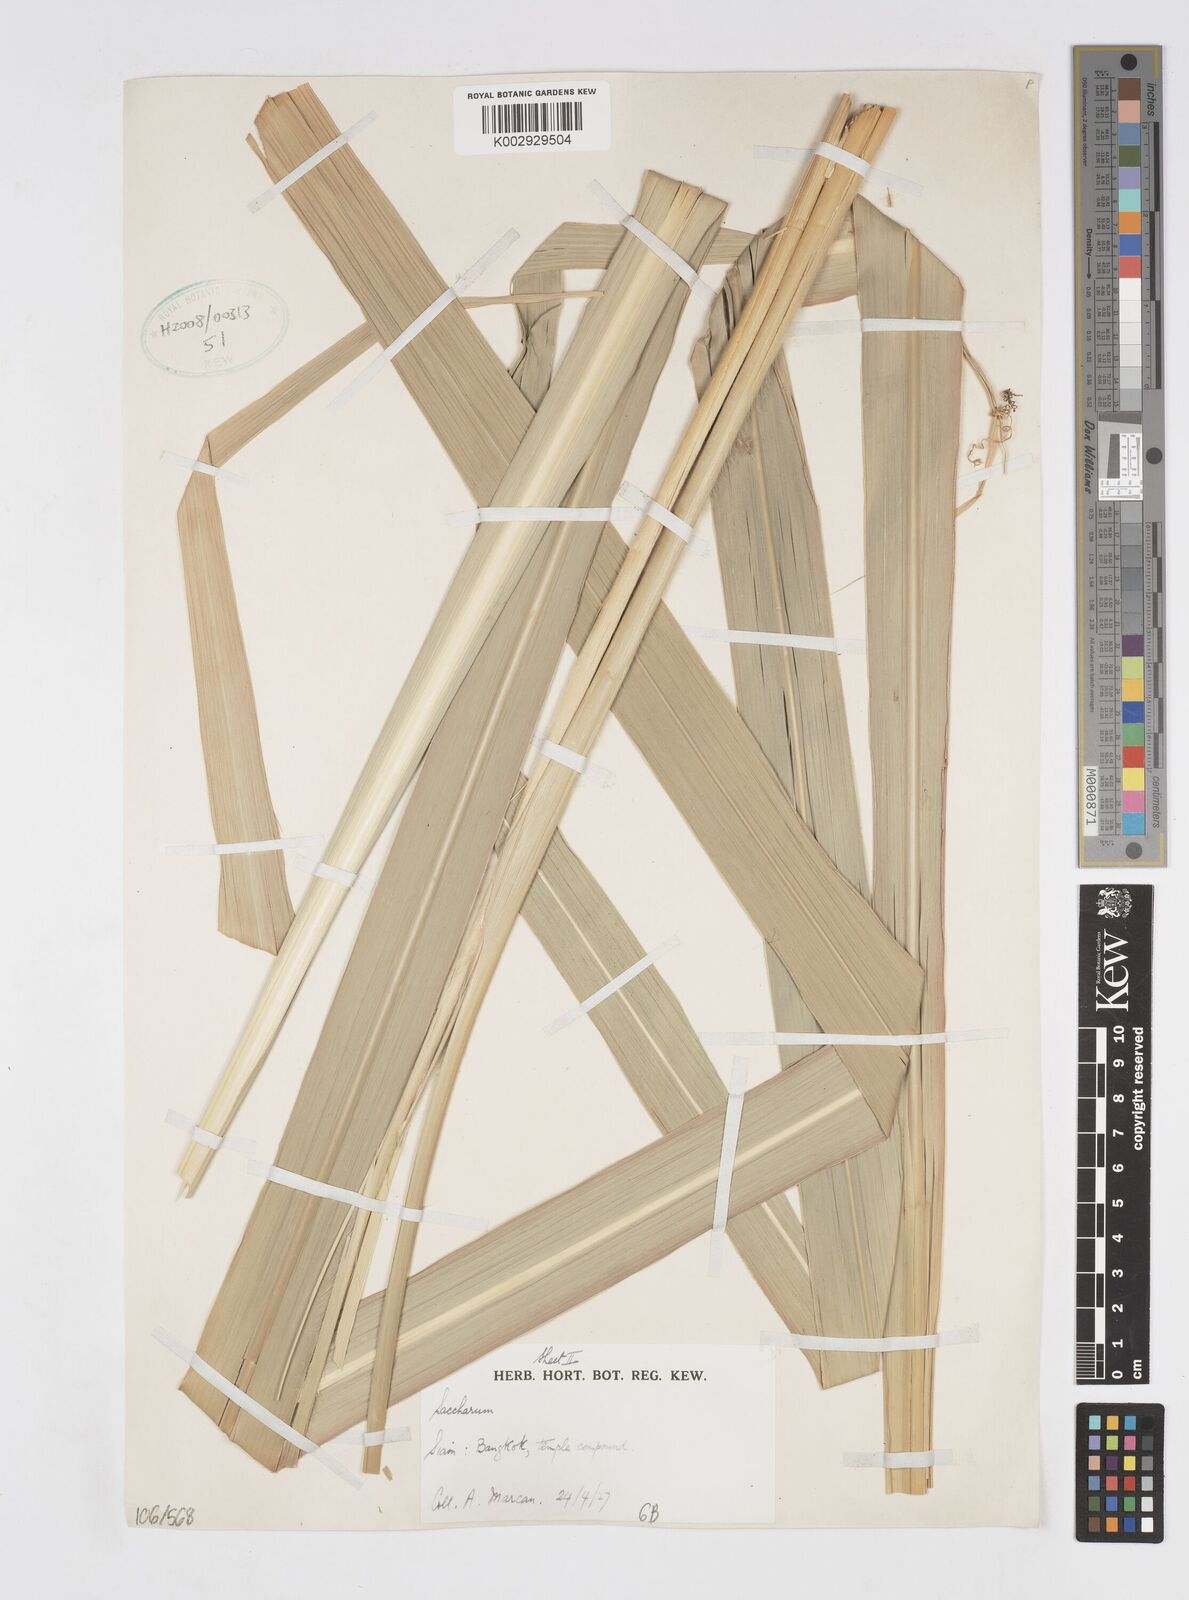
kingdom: Plantae
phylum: Tracheophyta
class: Liliopsida
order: Poales
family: Poaceae
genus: Saccharum
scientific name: Saccharum
